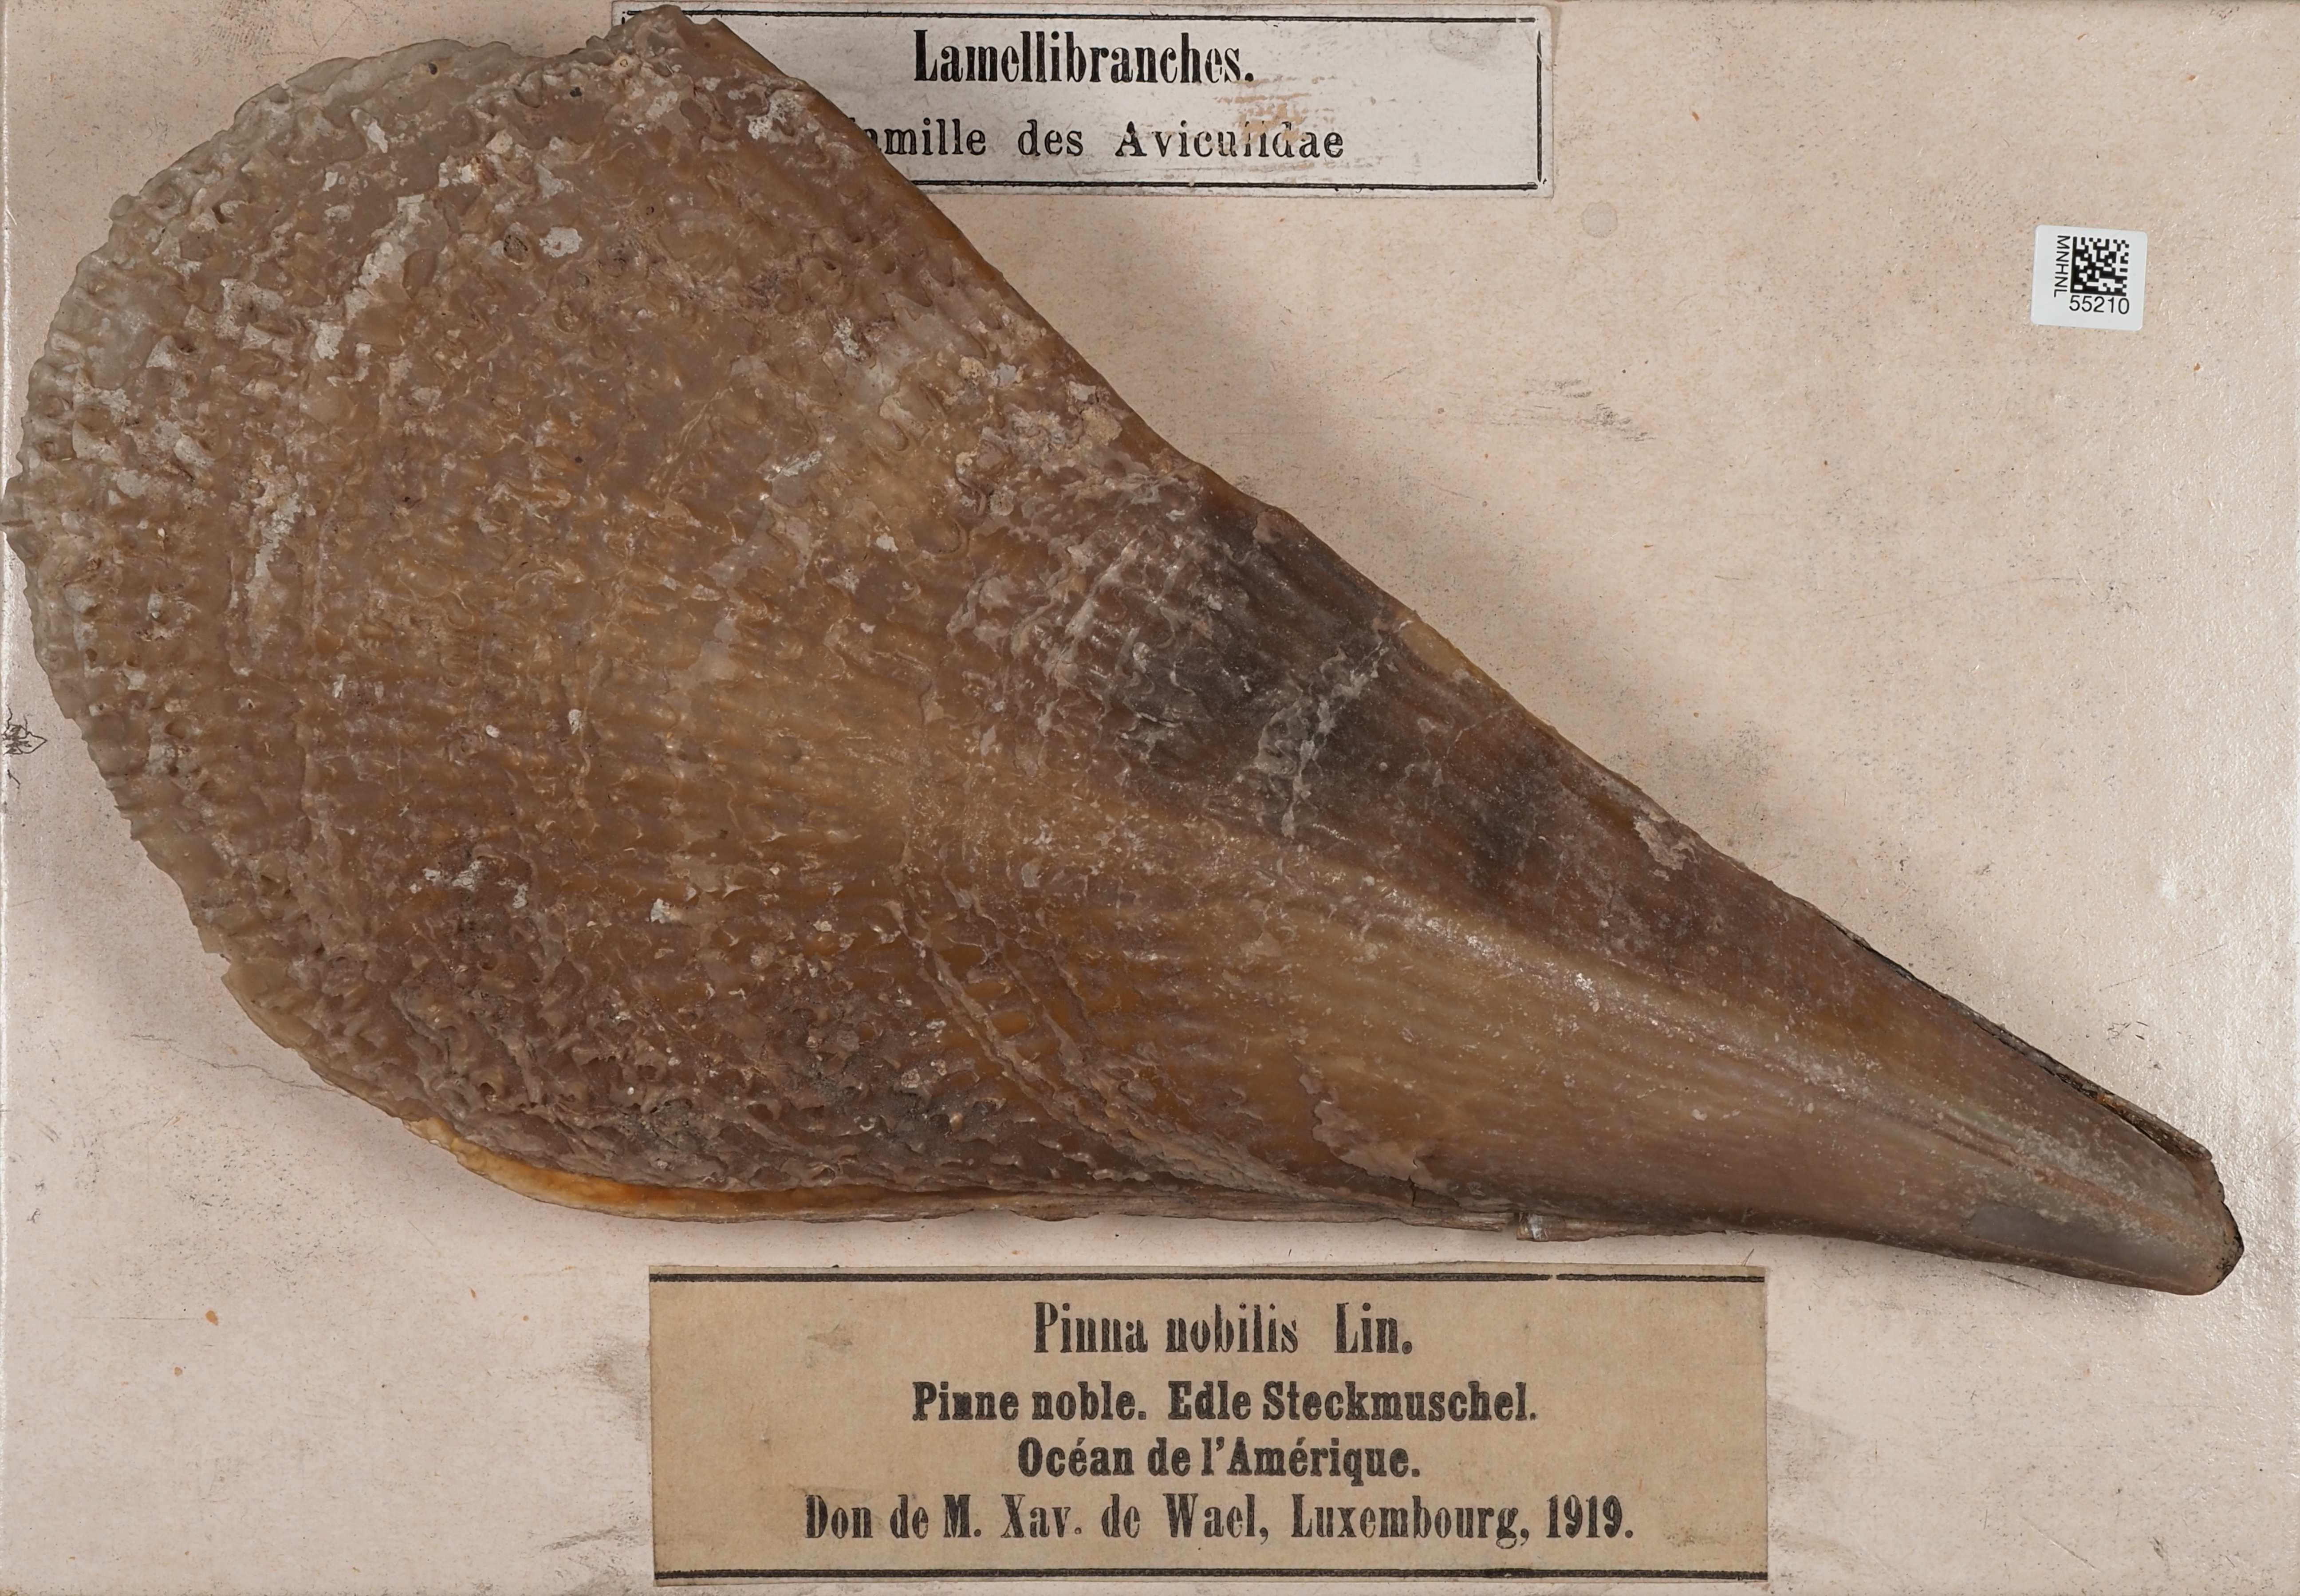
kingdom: Animalia
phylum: Mollusca
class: Bivalvia
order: Ostreida
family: Pinnidae
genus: Pinna
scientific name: Pinna nobilis
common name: Fan mussel
